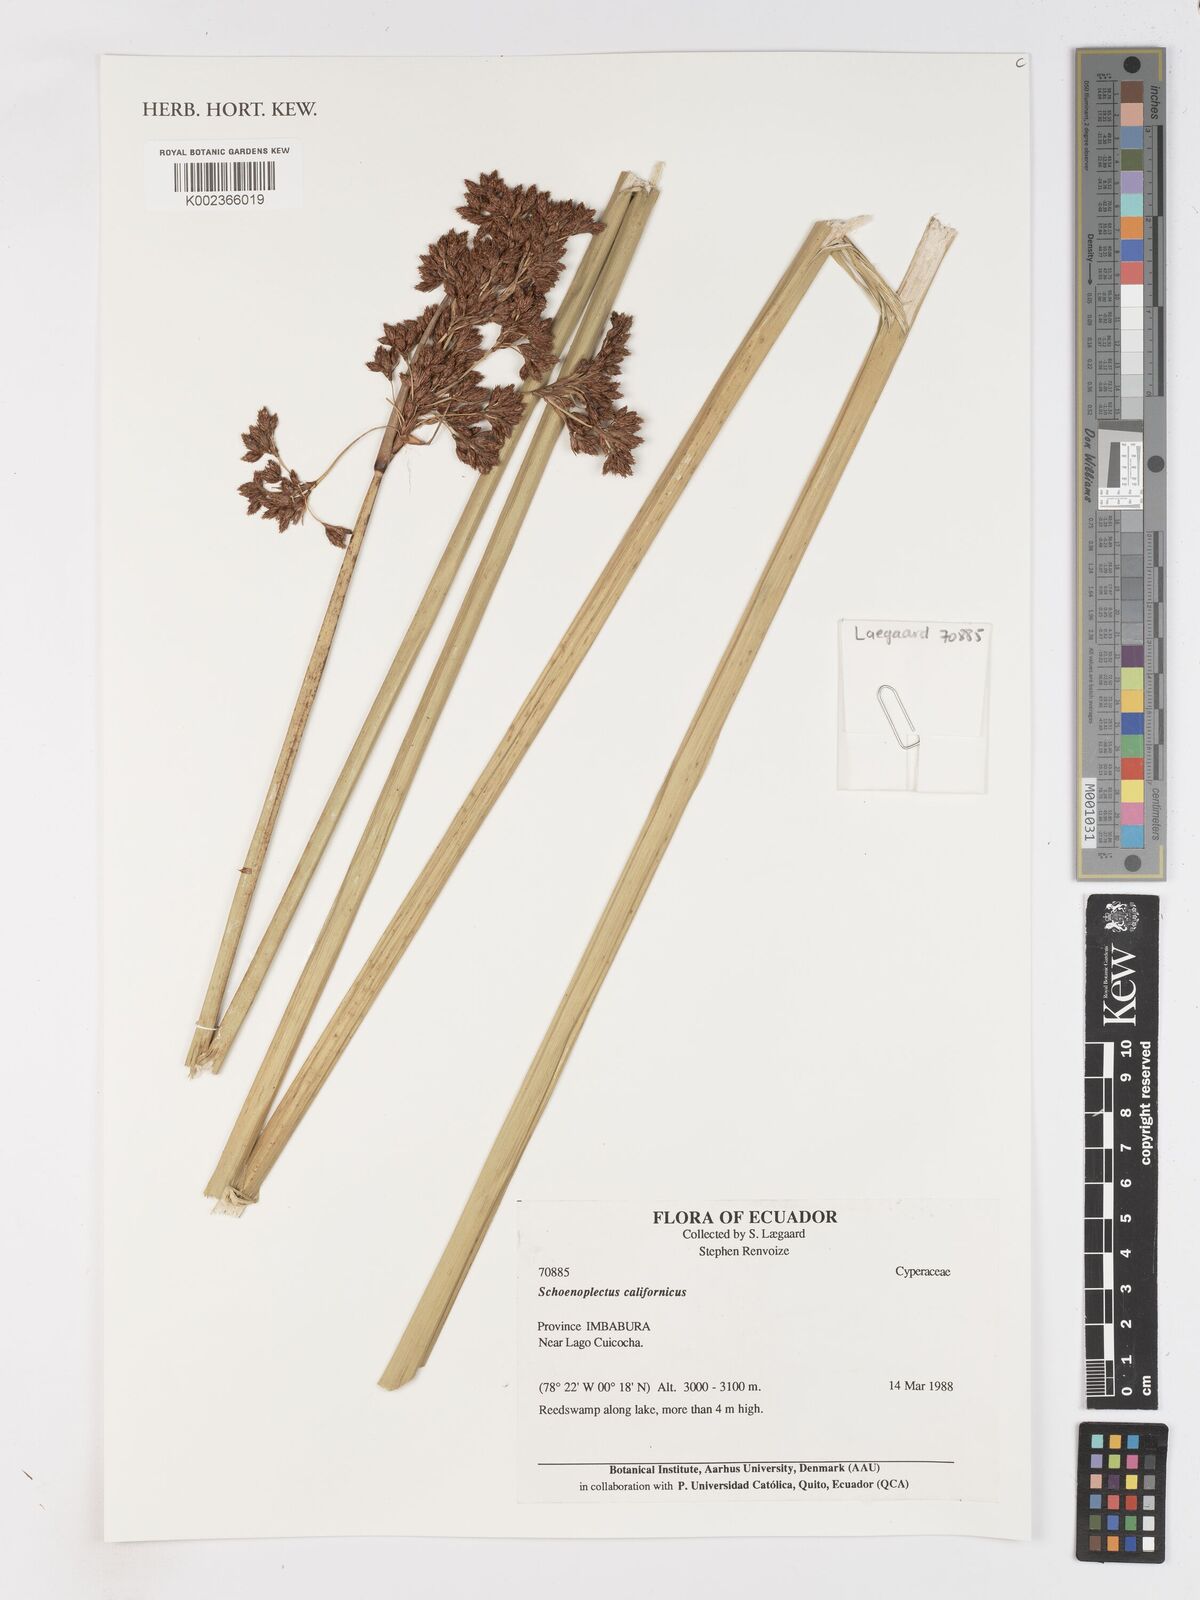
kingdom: Plantae
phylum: Tracheophyta
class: Liliopsida
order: Poales
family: Cyperaceae
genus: Schoenoplectus
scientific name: Schoenoplectus californicus
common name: California bulrush
